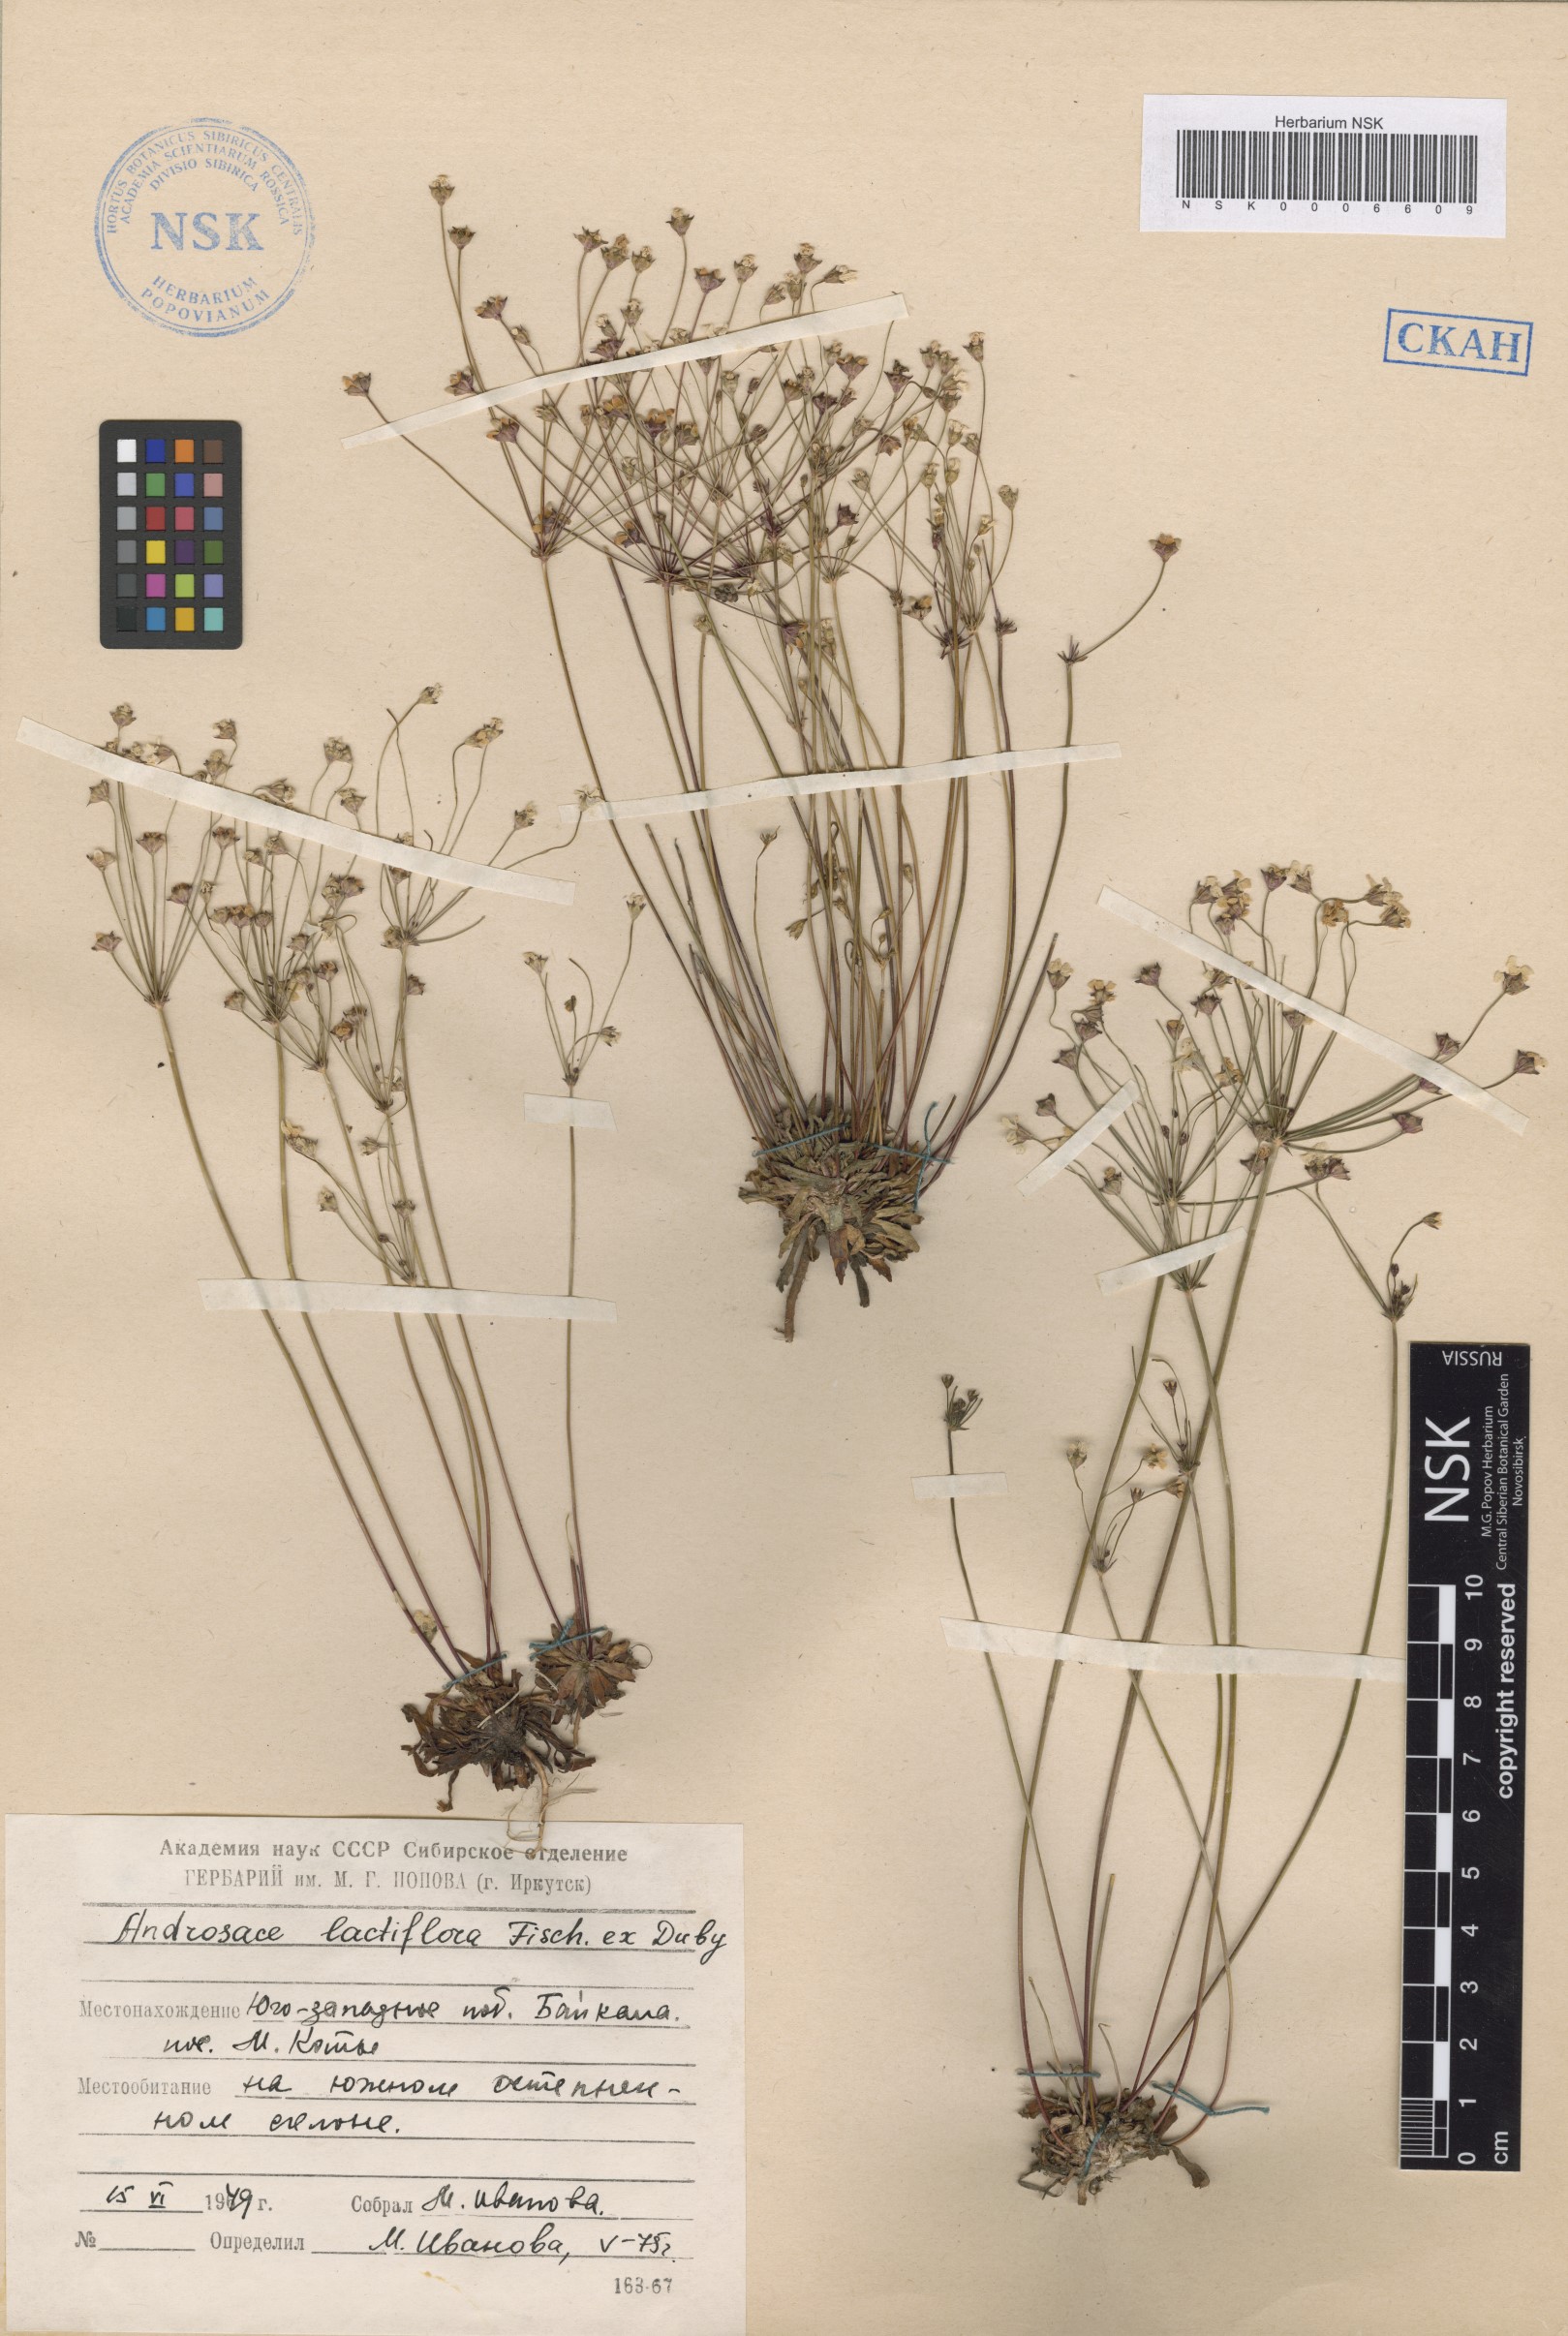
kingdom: Plantae
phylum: Tracheophyta
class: Magnoliopsida
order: Ericales
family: Primulaceae
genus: Androsace
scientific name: Androsace lactiflora
